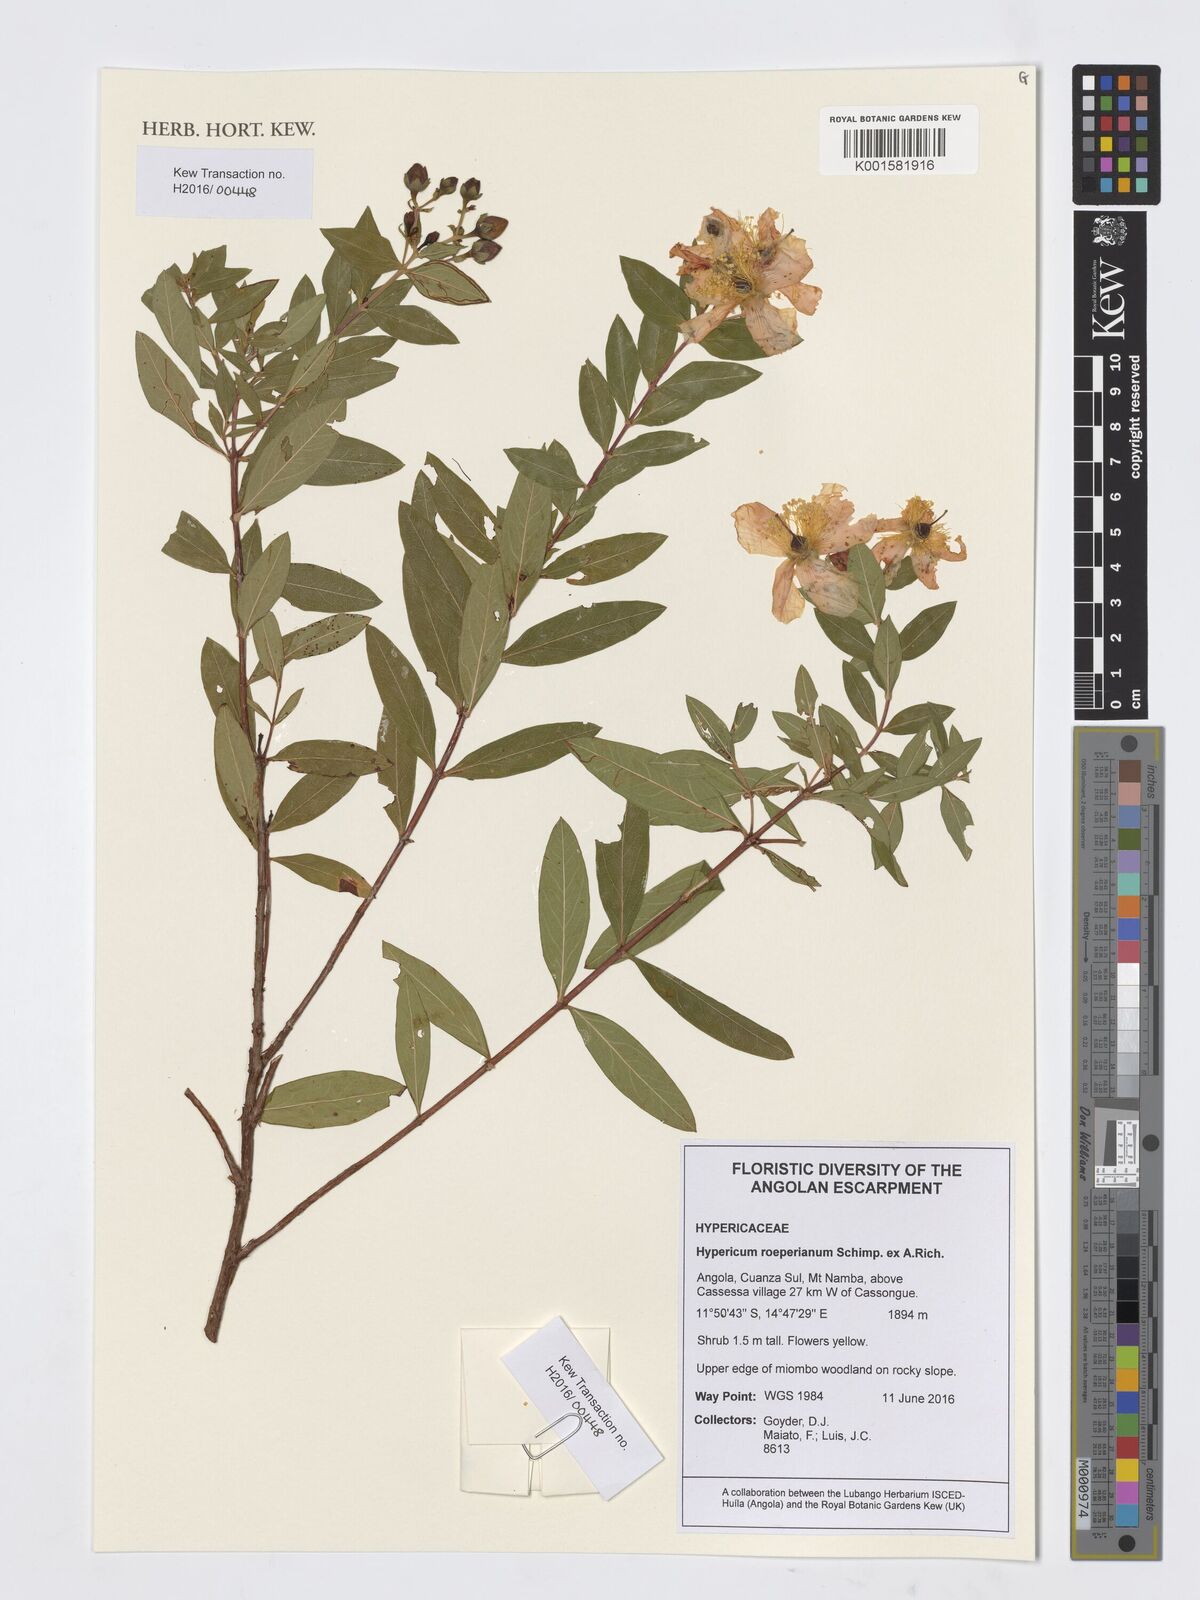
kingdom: Plantae
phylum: Tracheophyta
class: Magnoliopsida
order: Malpighiales
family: Hypericaceae
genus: Hypericum
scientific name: Hypericum roeperianum
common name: Large-leaved curry-bush
